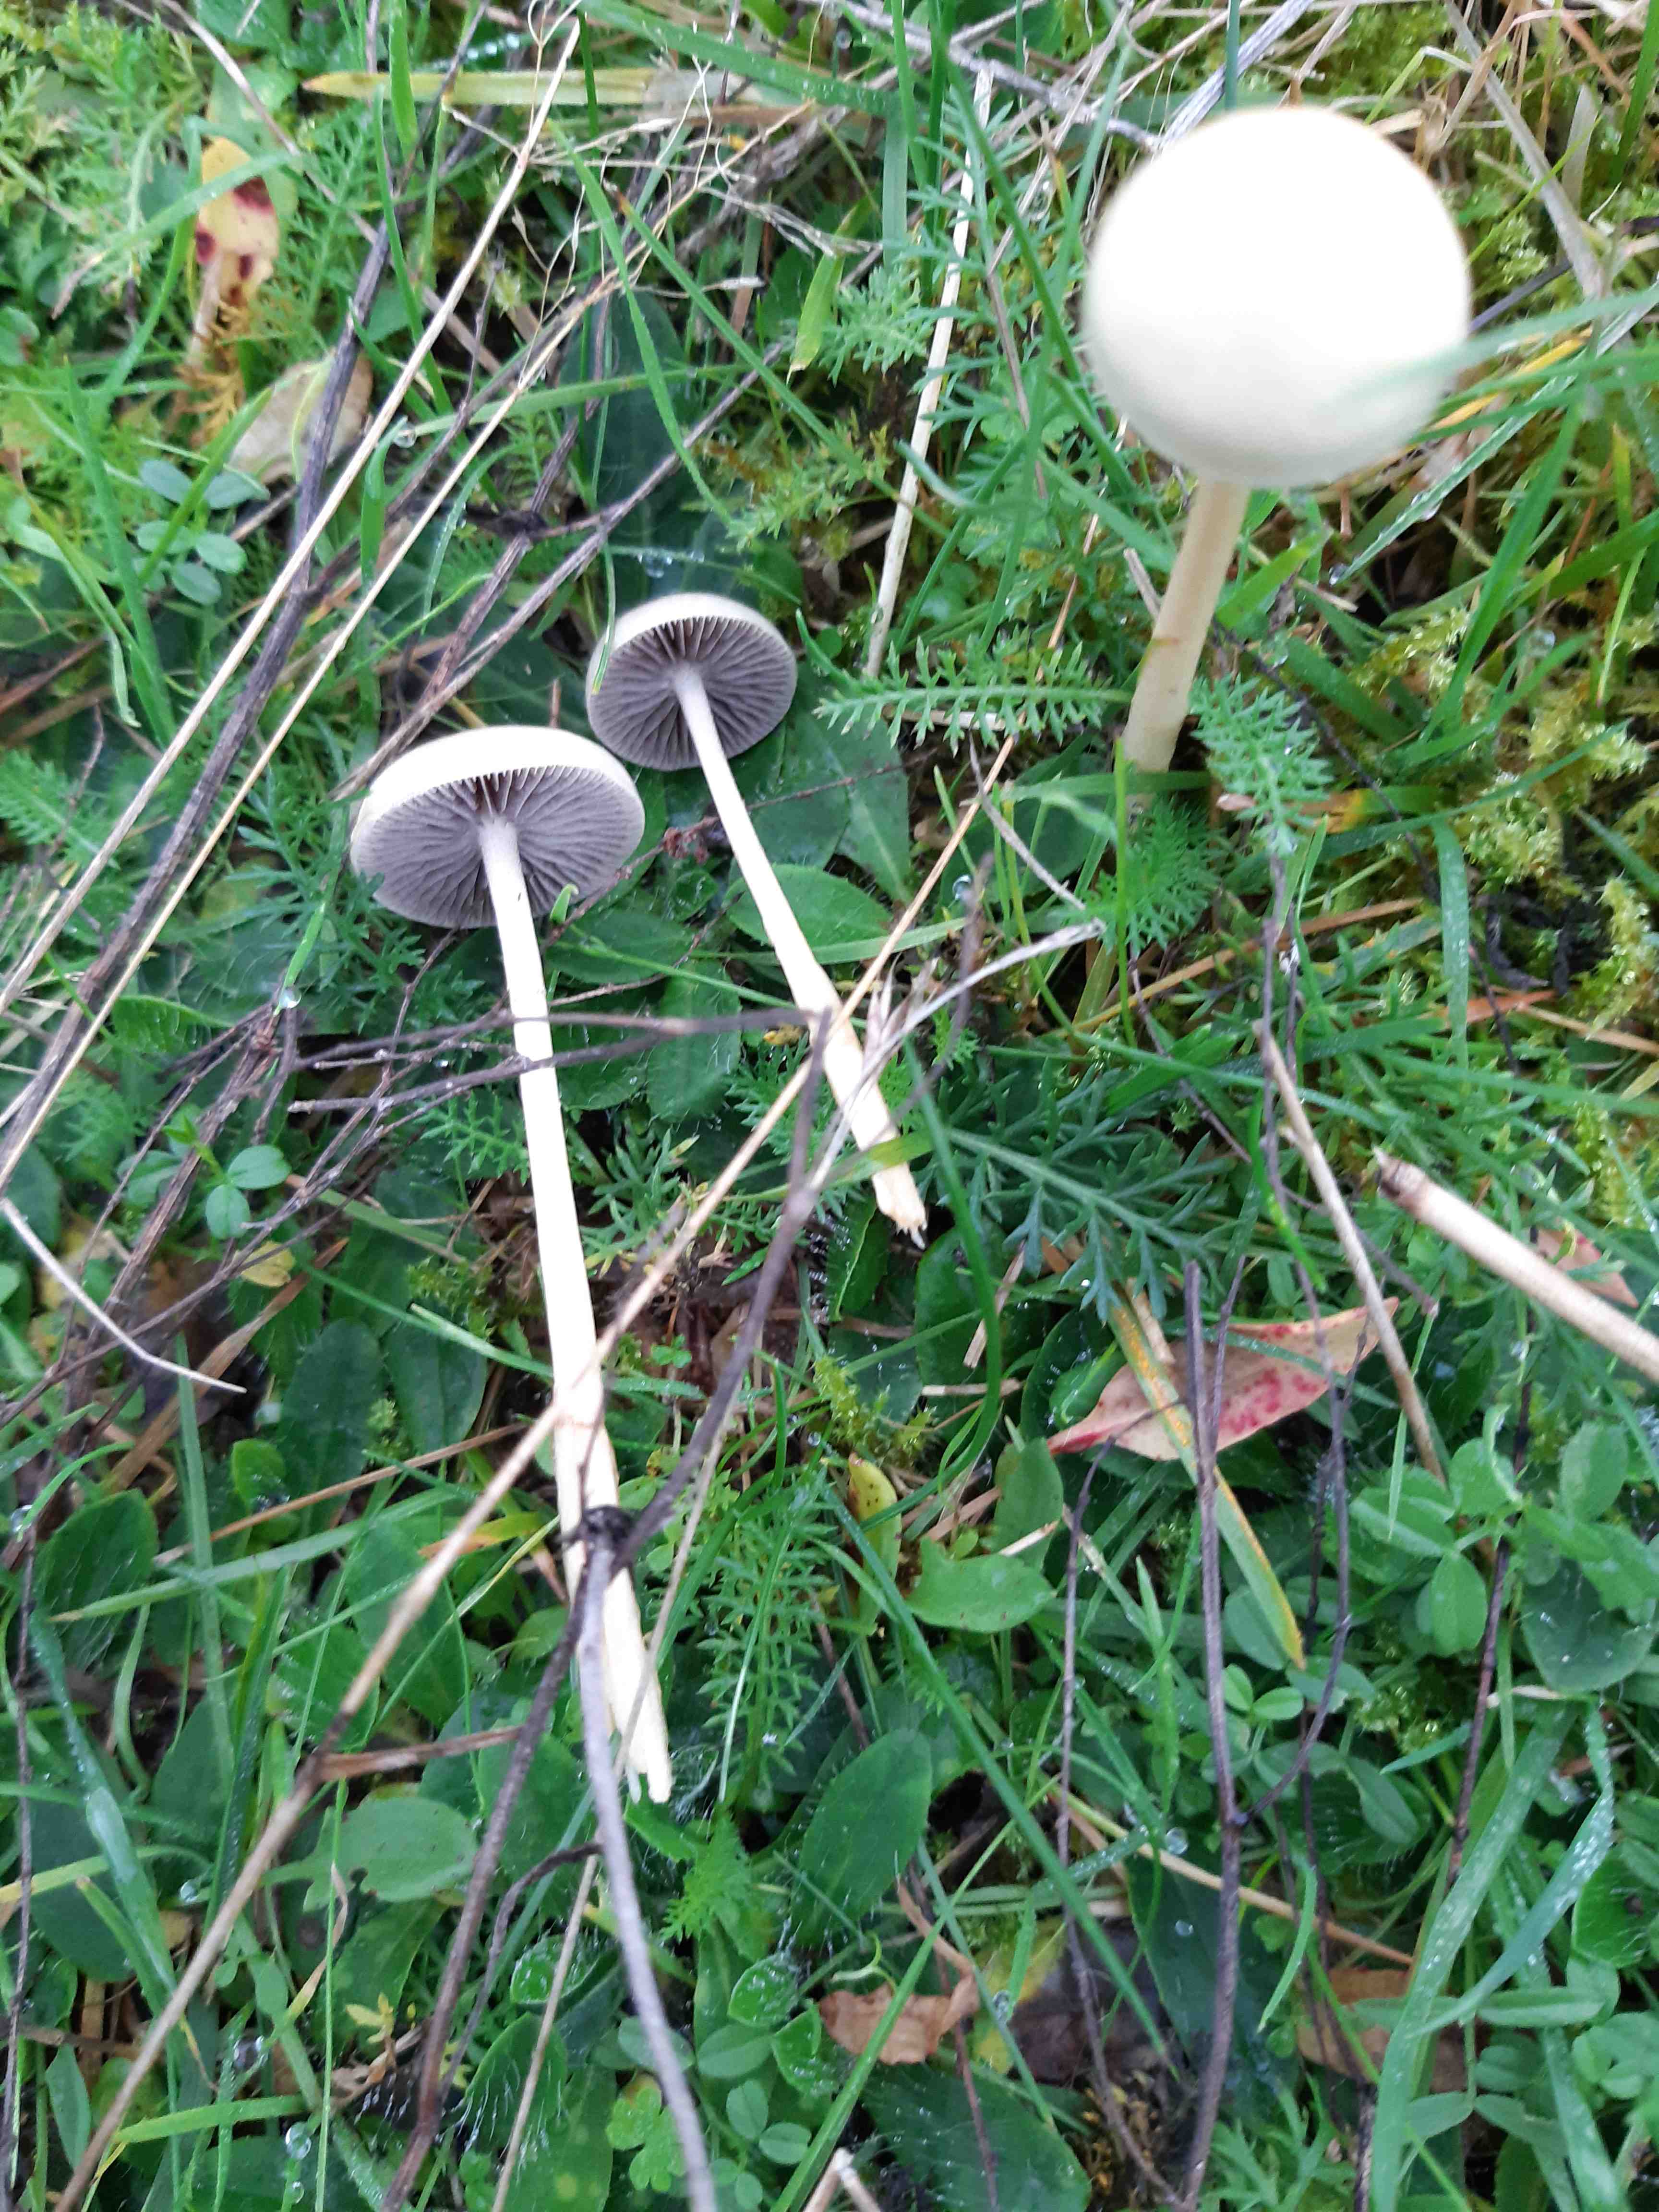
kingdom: Fungi
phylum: Basidiomycota
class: Agaricomycetes
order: Agaricales
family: Strophariaceae
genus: Protostropharia
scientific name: Protostropharia semiglobata
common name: halvkugleformet bredblad
